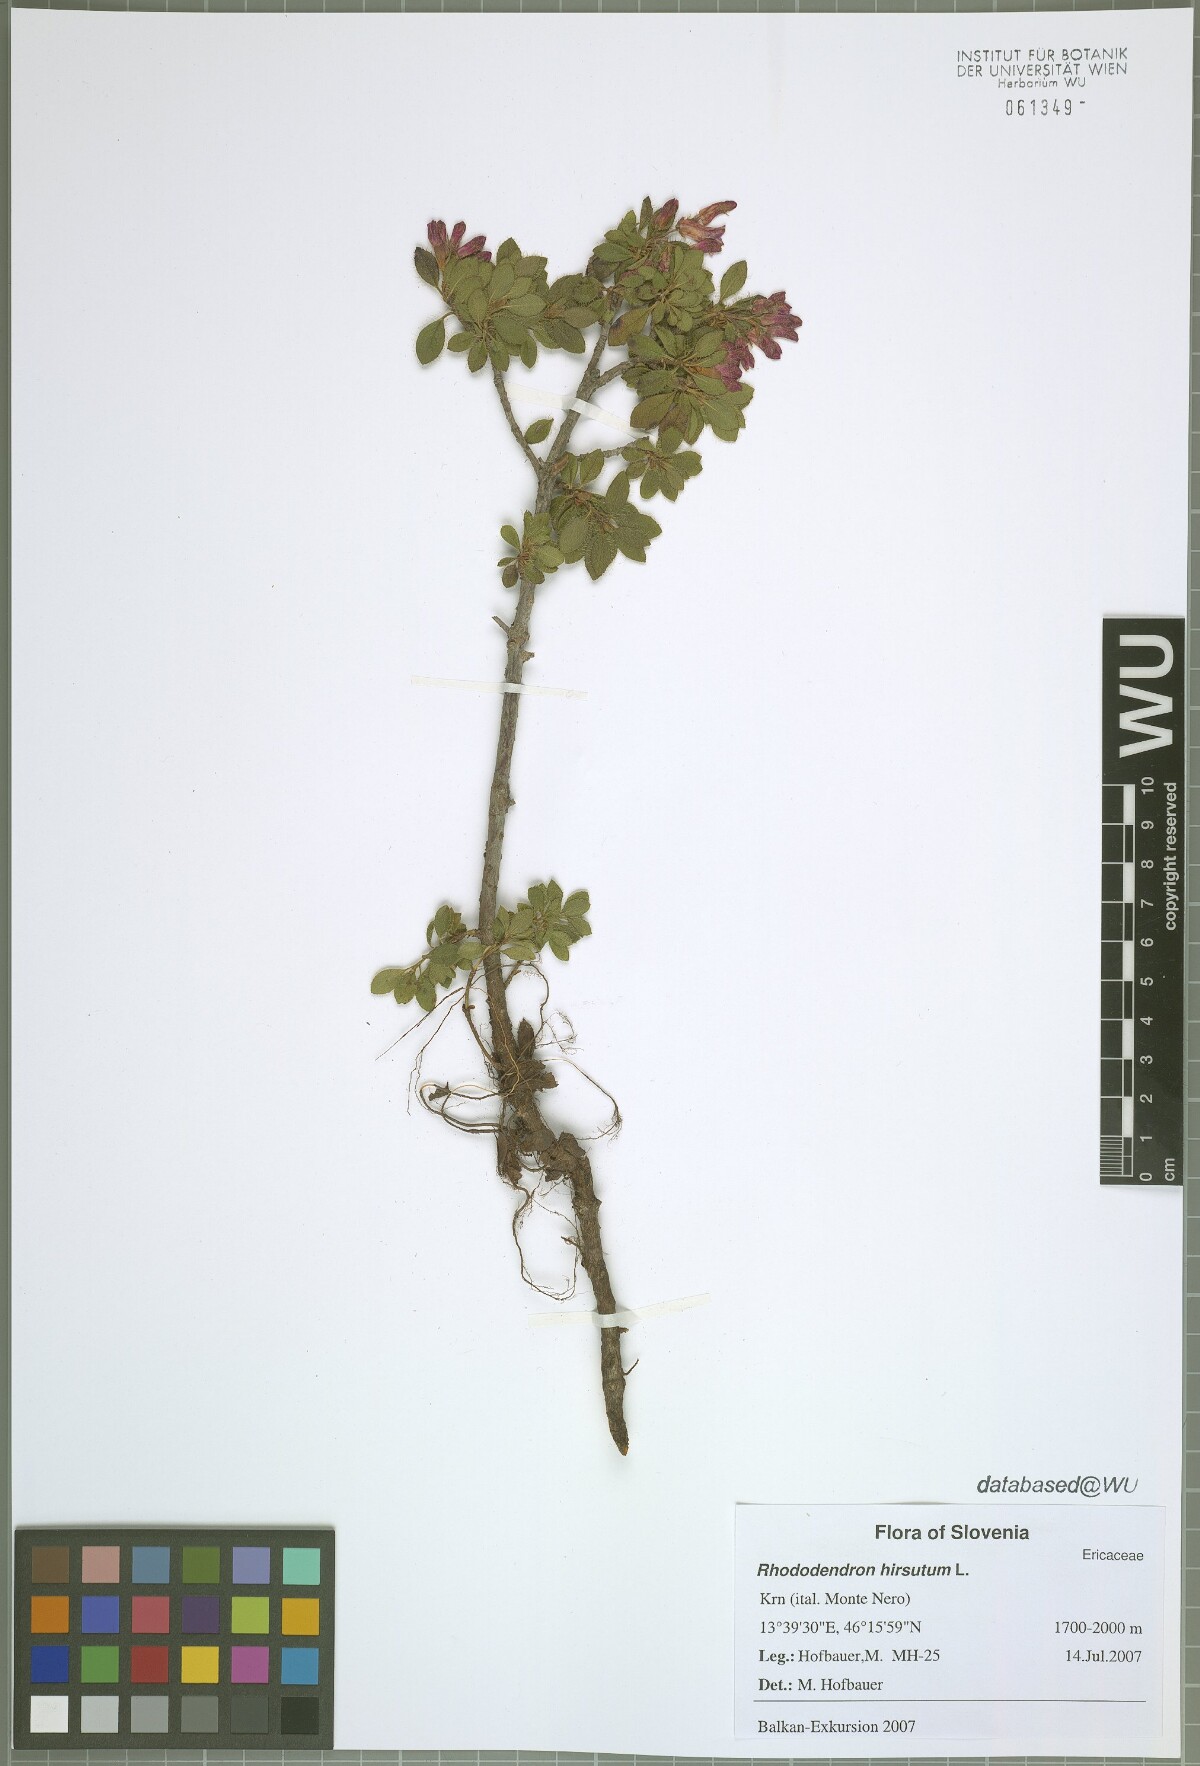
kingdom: Plantae
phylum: Tracheophyta
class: Magnoliopsida
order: Ericales
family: Ericaceae
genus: Rhododendron
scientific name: Rhododendron hirsutum
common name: Hairy alpenrose
